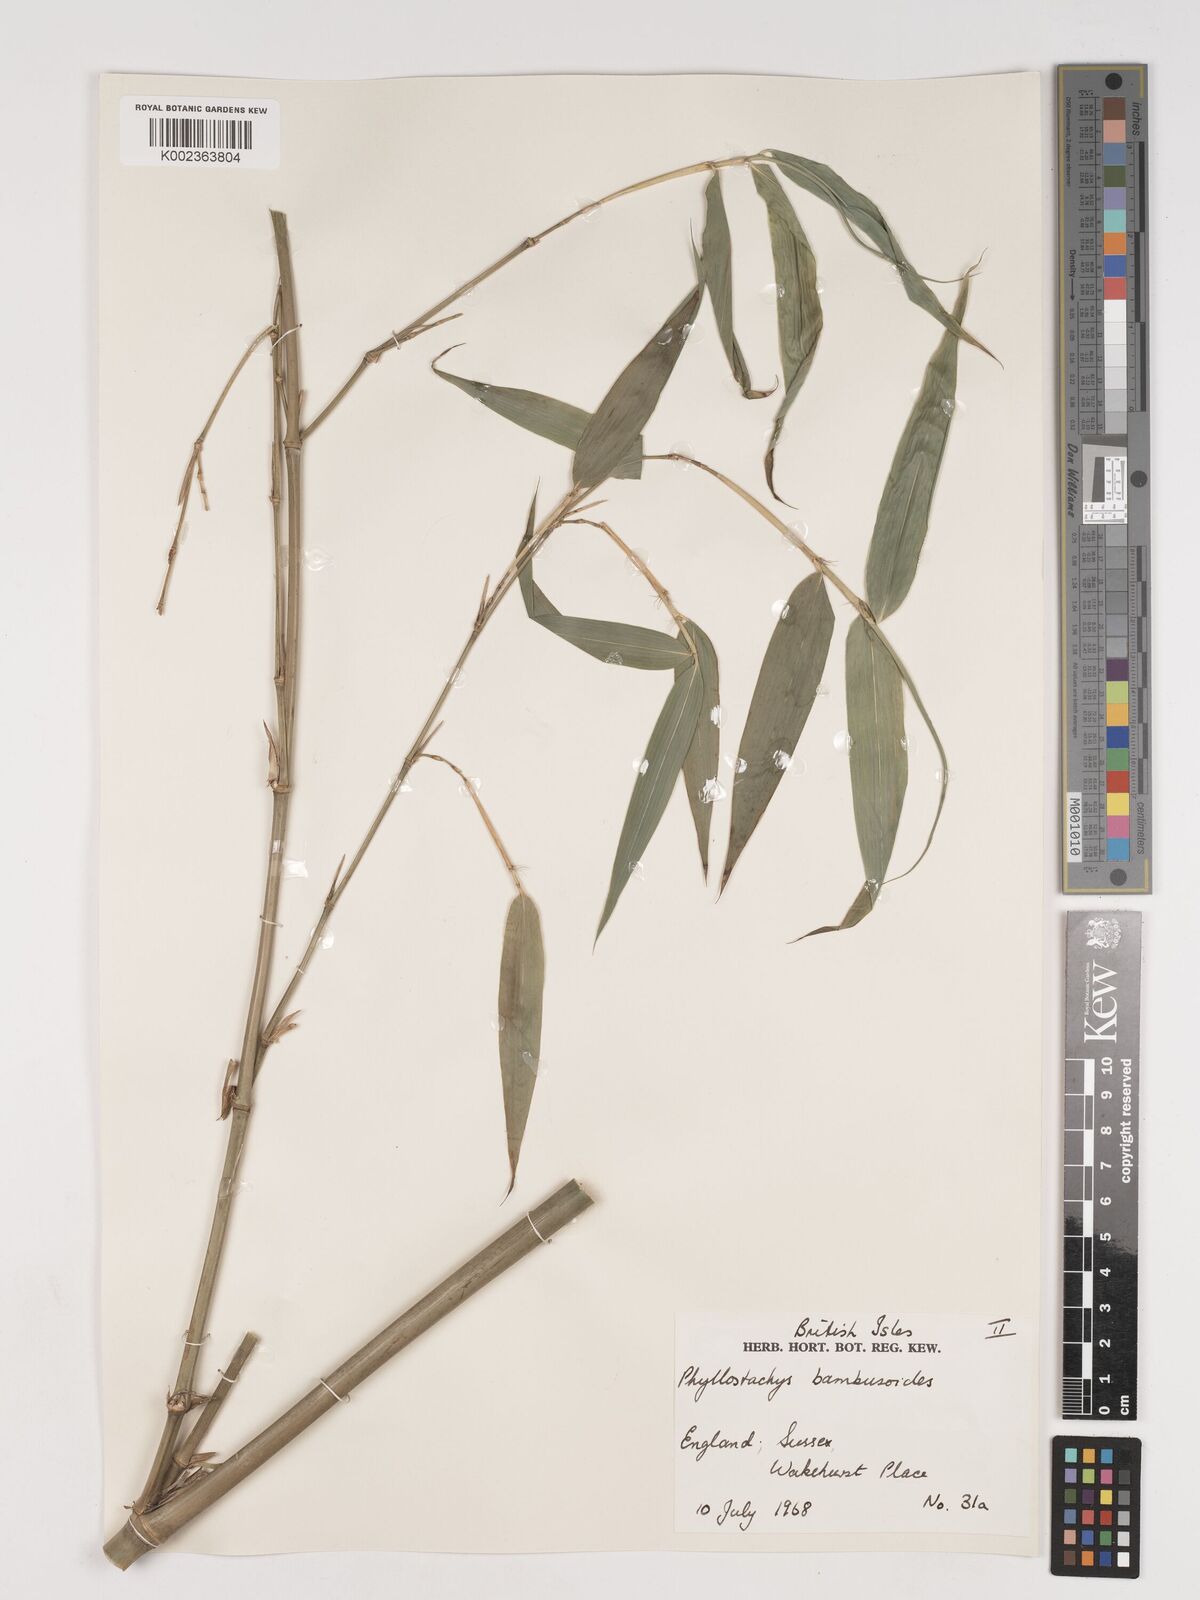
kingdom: Plantae
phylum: Tracheophyta
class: Liliopsida
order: Poales
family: Poaceae
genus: Phyllostachys
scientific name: Phyllostachys reticulata
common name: Bamboo
